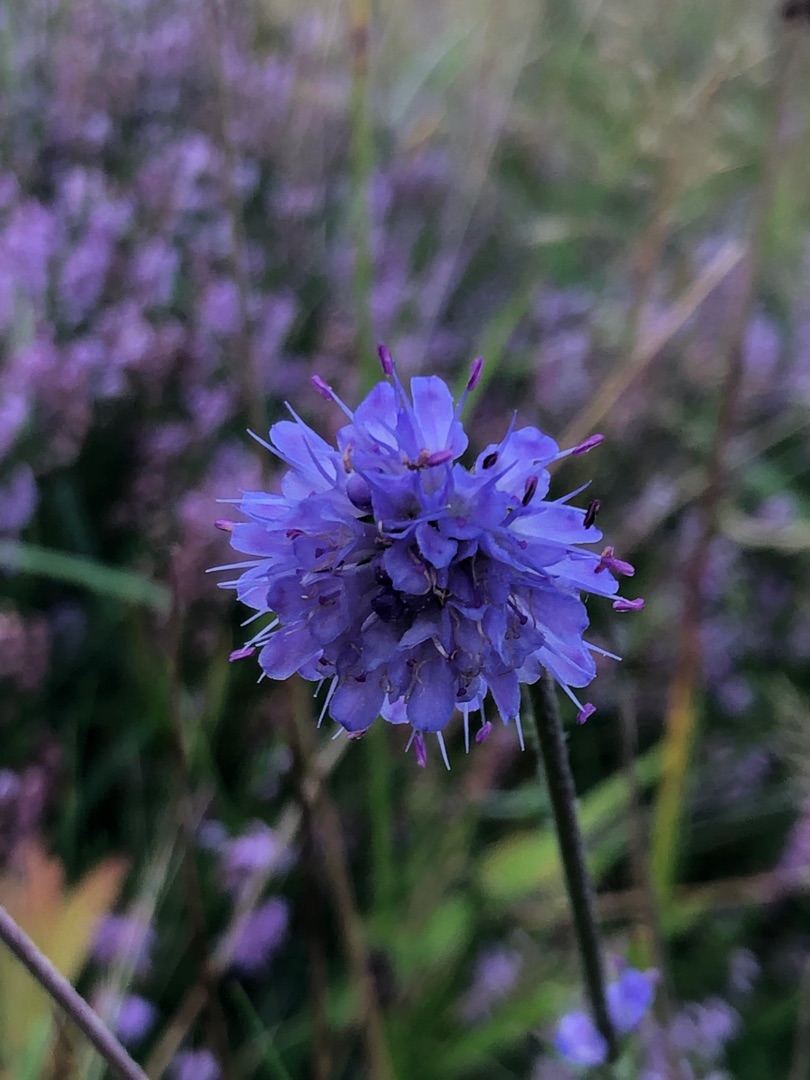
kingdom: Plantae
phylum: Tracheophyta
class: Magnoliopsida
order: Dipsacales
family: Caprifoliaceae
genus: Succisa
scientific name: Succisa pratensis
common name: Djævelsbid
